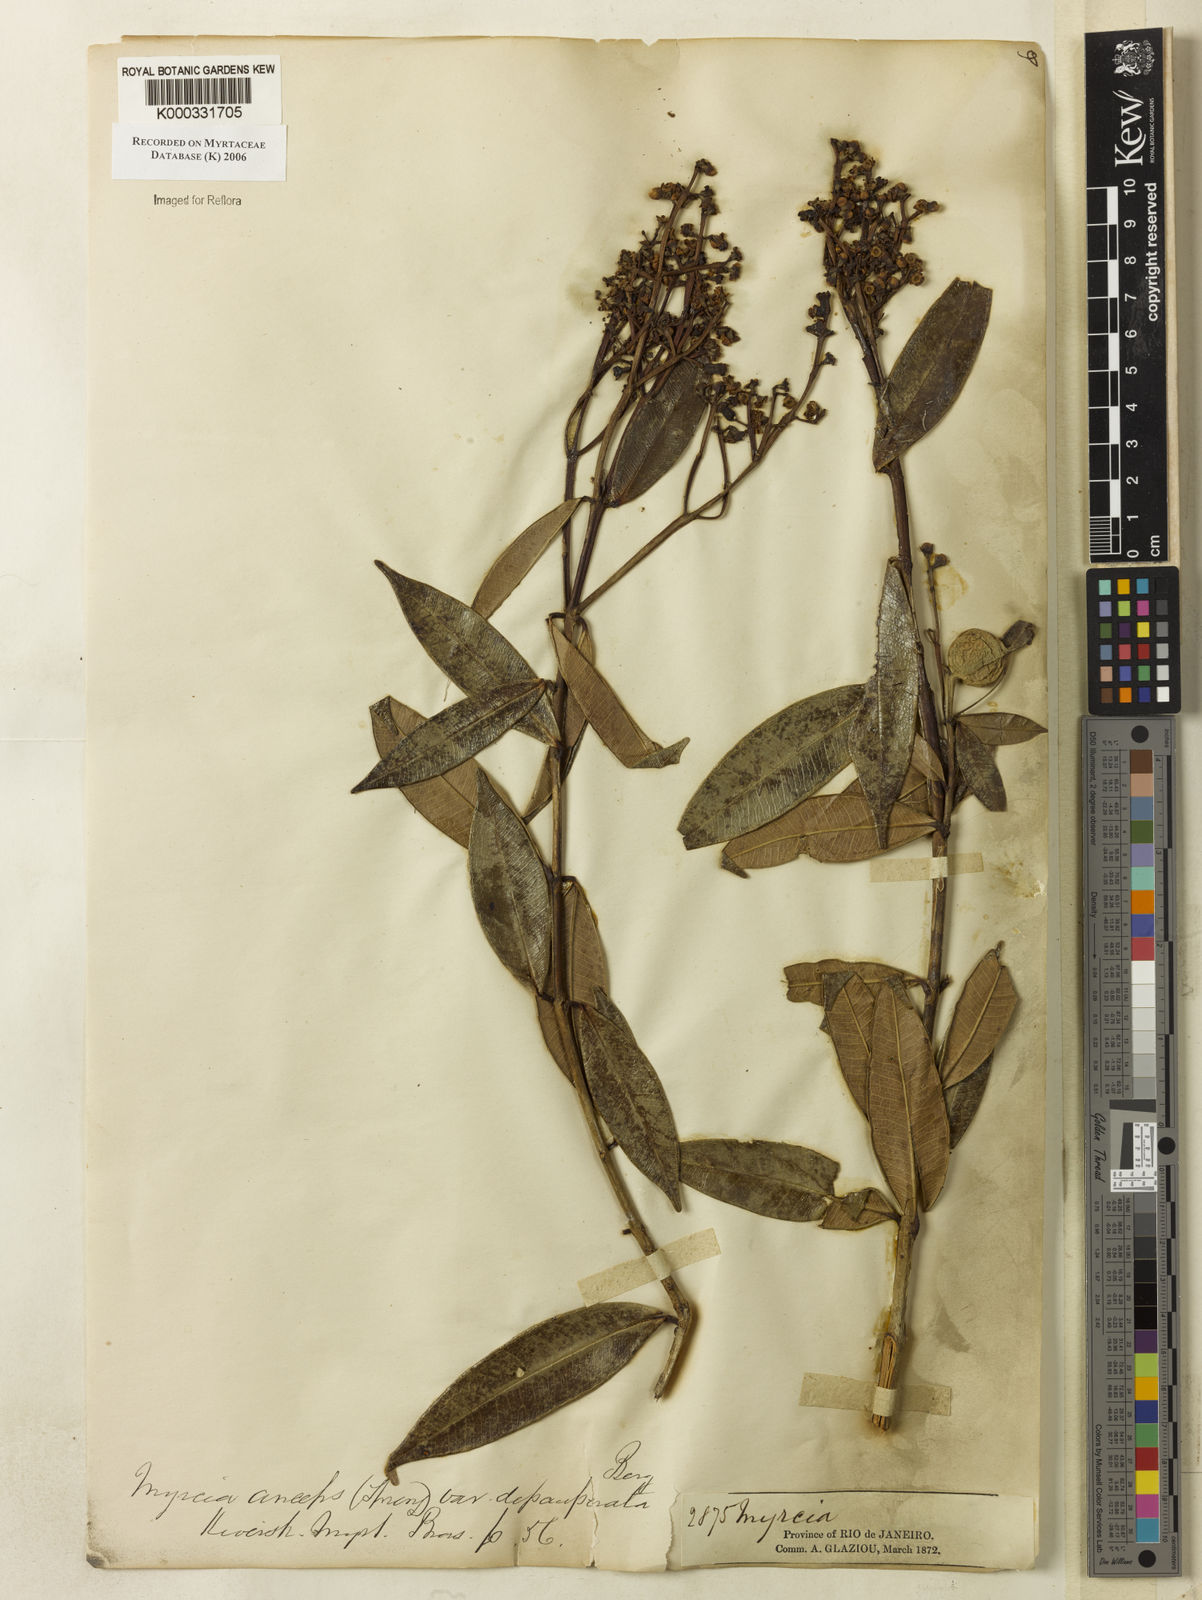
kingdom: Plantae
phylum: Tracheophyta
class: Magnoliopsida
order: Myrtales
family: Myrtaceae
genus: Myrcia
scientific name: Myrcia anceps
